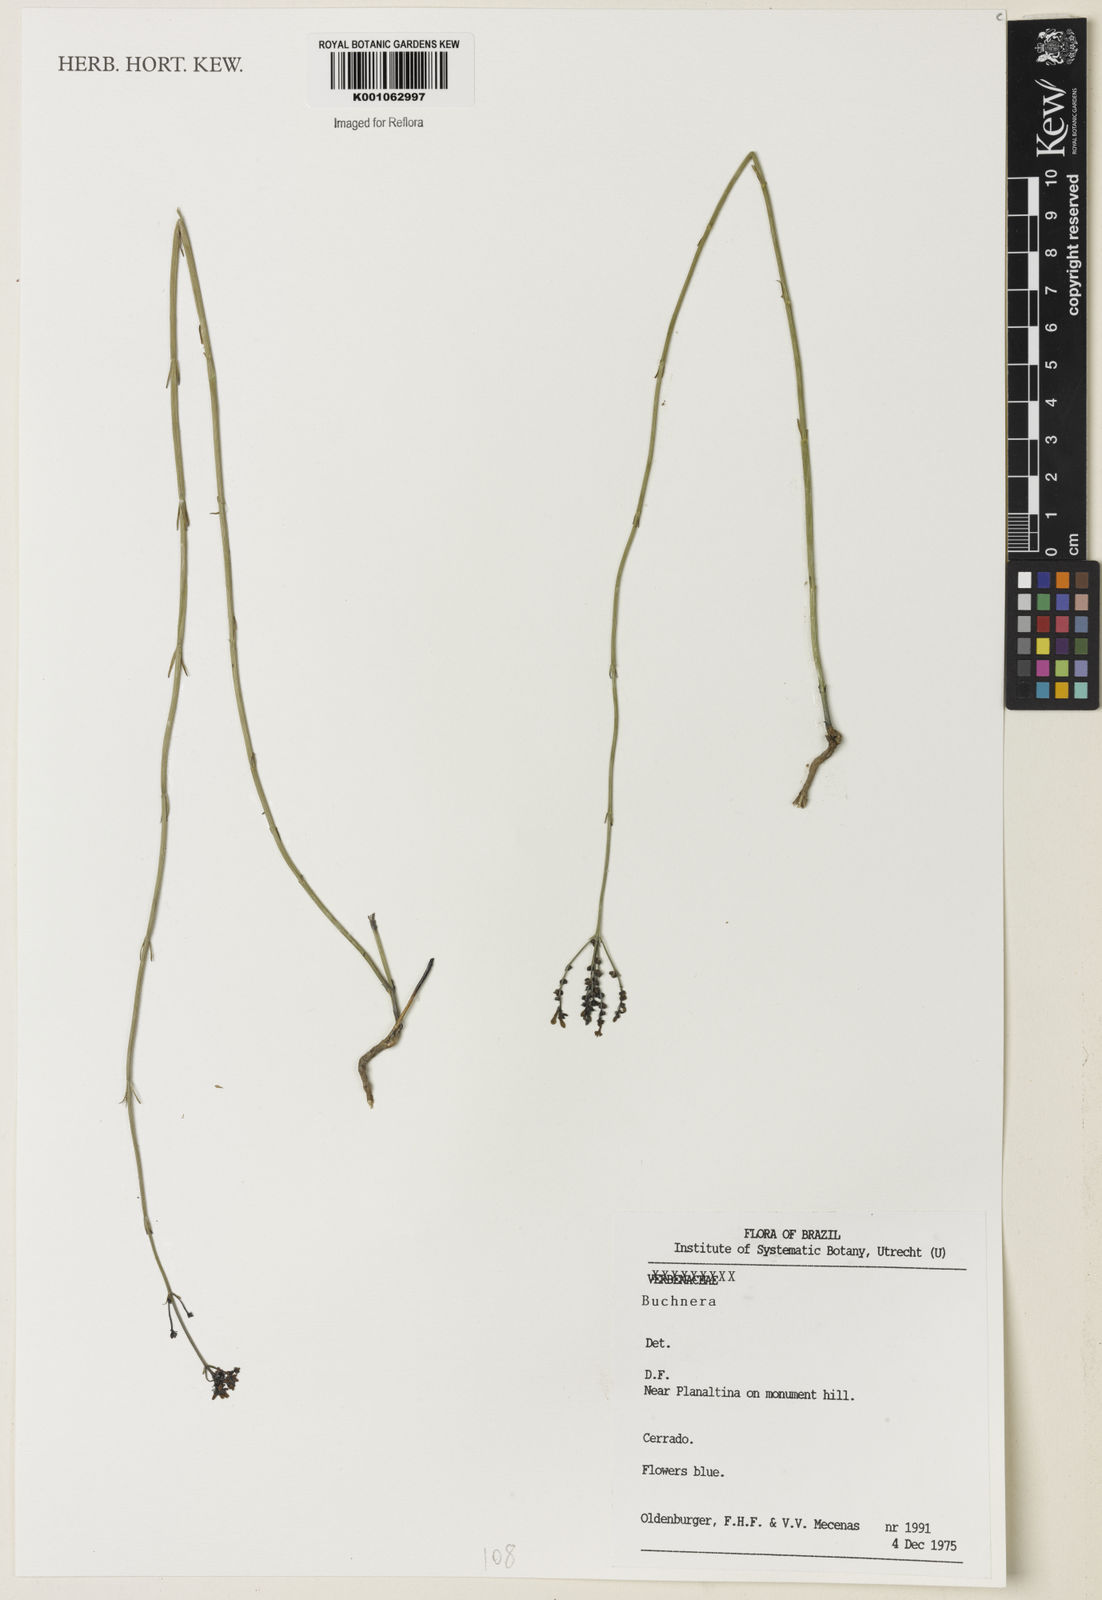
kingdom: Plantae
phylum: Tracheophyta
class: Magnoliopsida
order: Gentianales
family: Loganiaceae
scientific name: Loganiaceae
